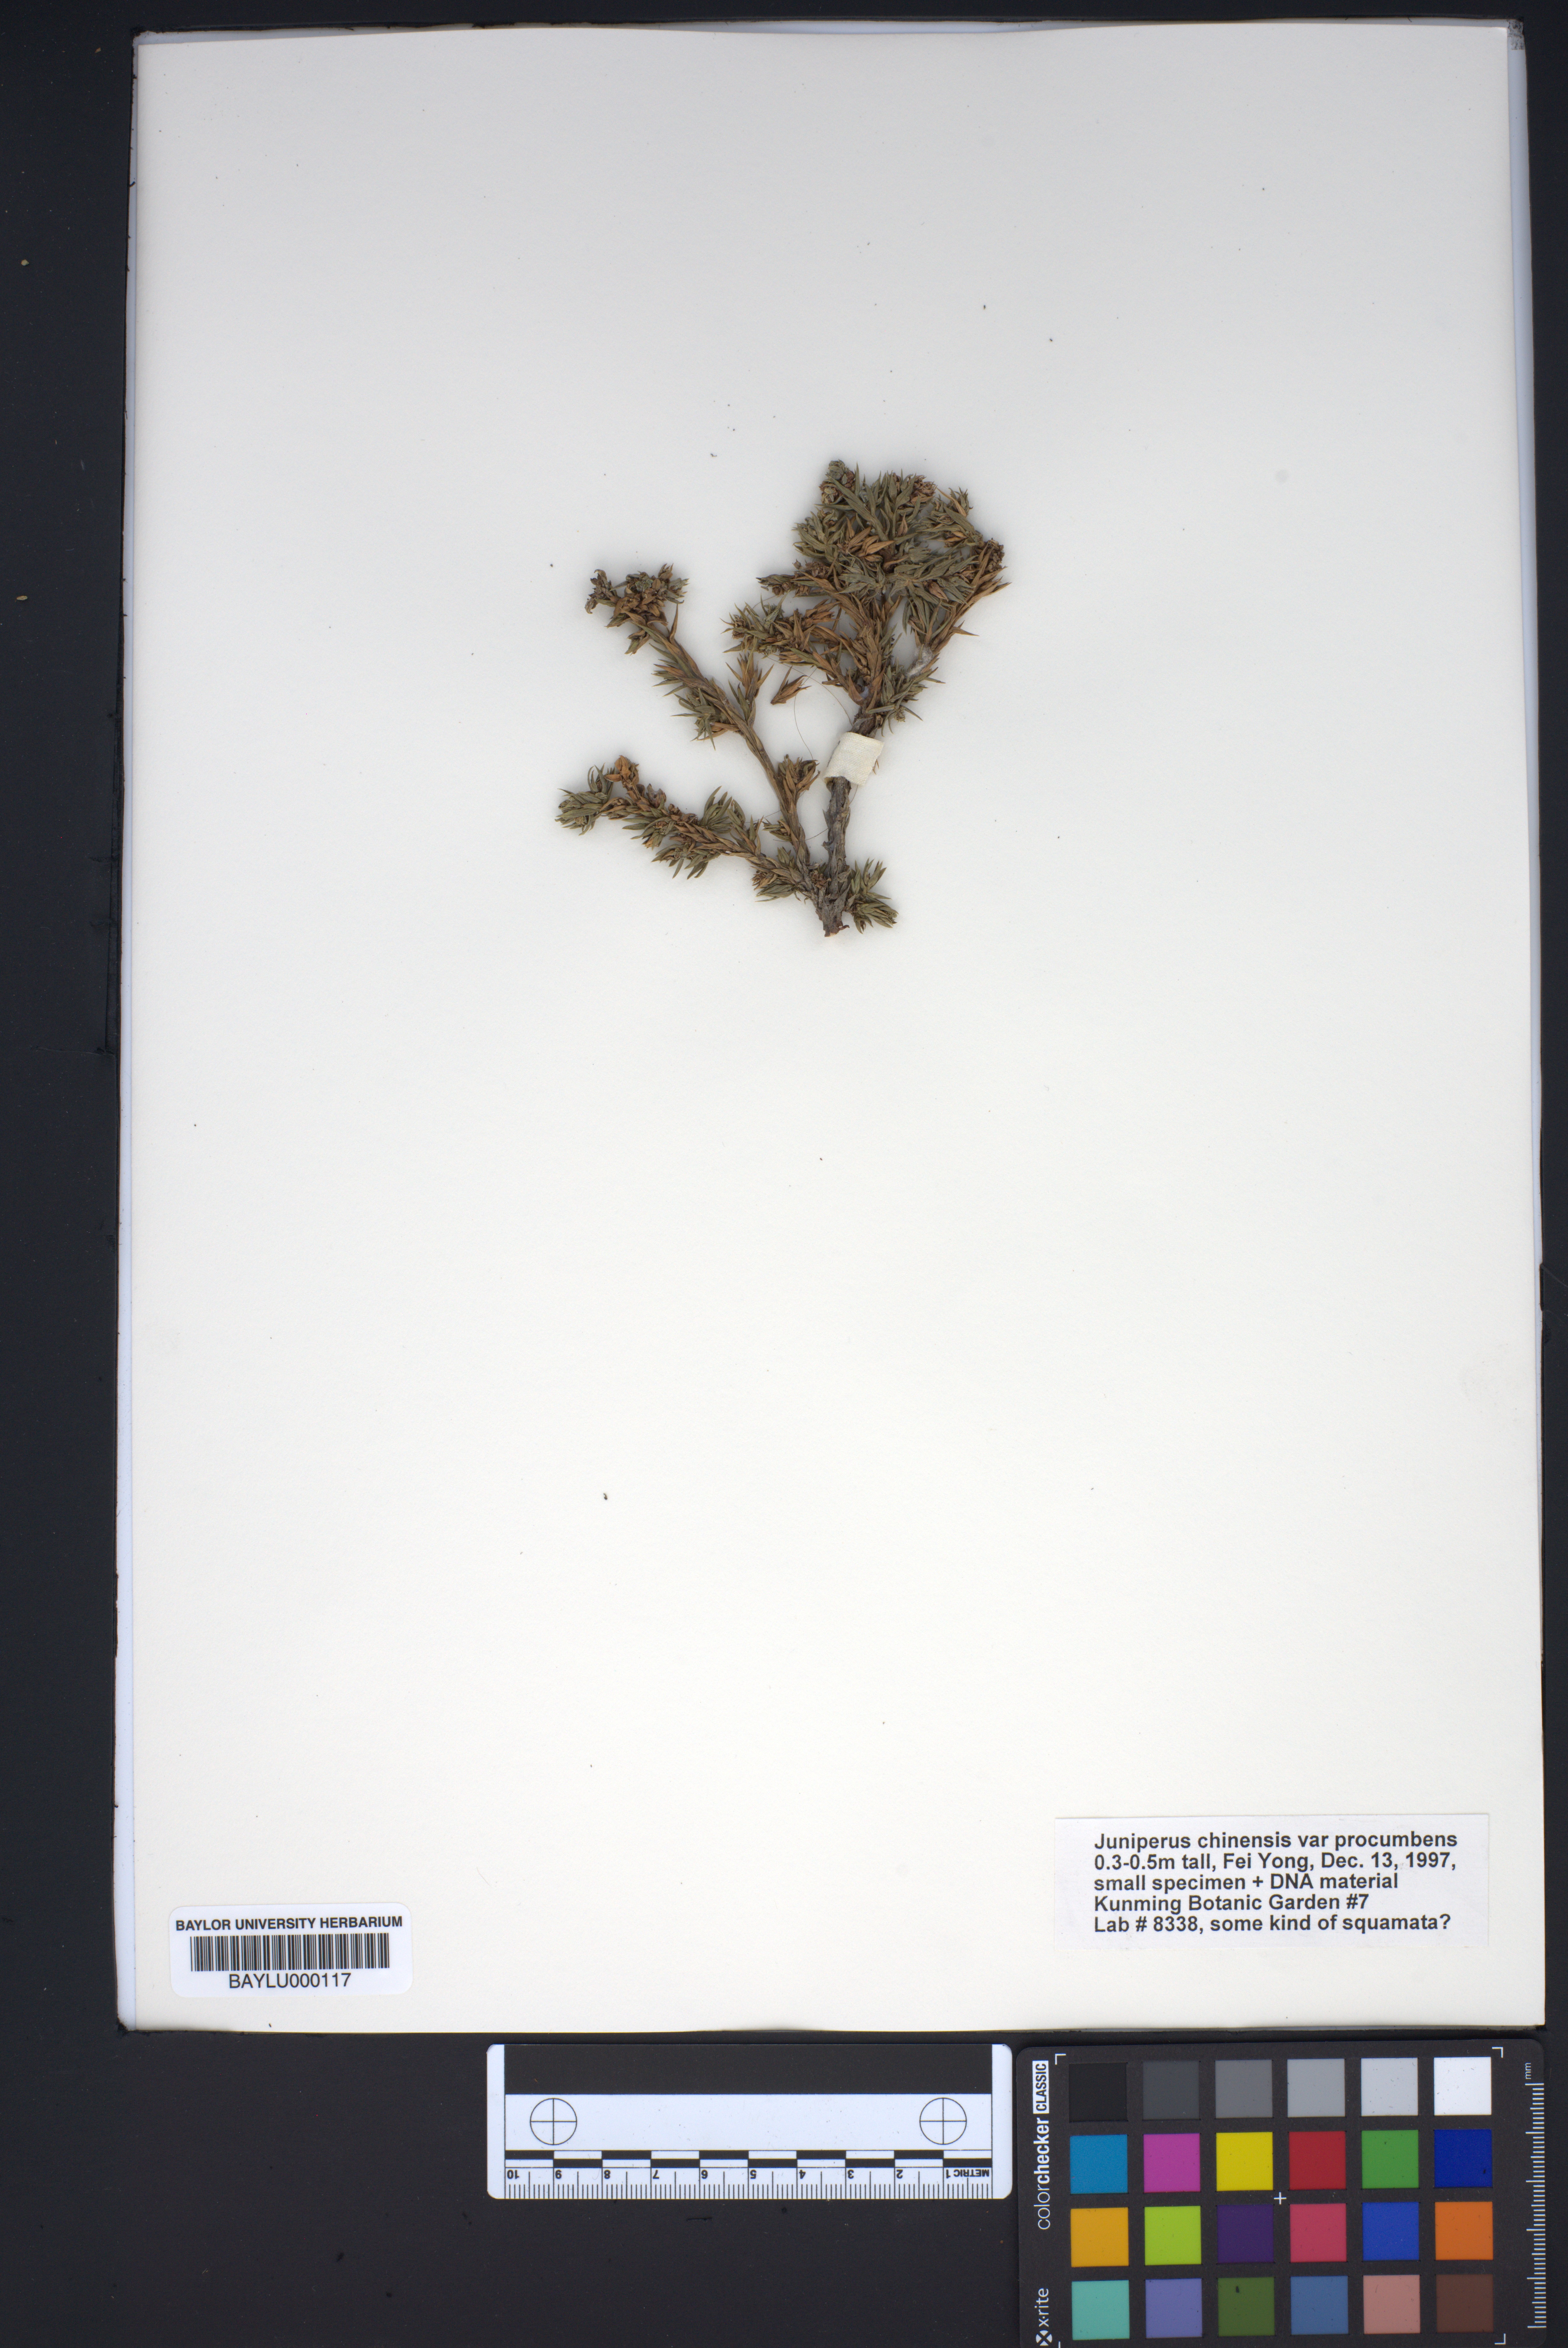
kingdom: Plantae
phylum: Tracheophyta
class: Pinopsida
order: Pinales
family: Cupressaceae
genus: Juniperus
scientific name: Juniperus procumbens
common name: Creeping juniper
